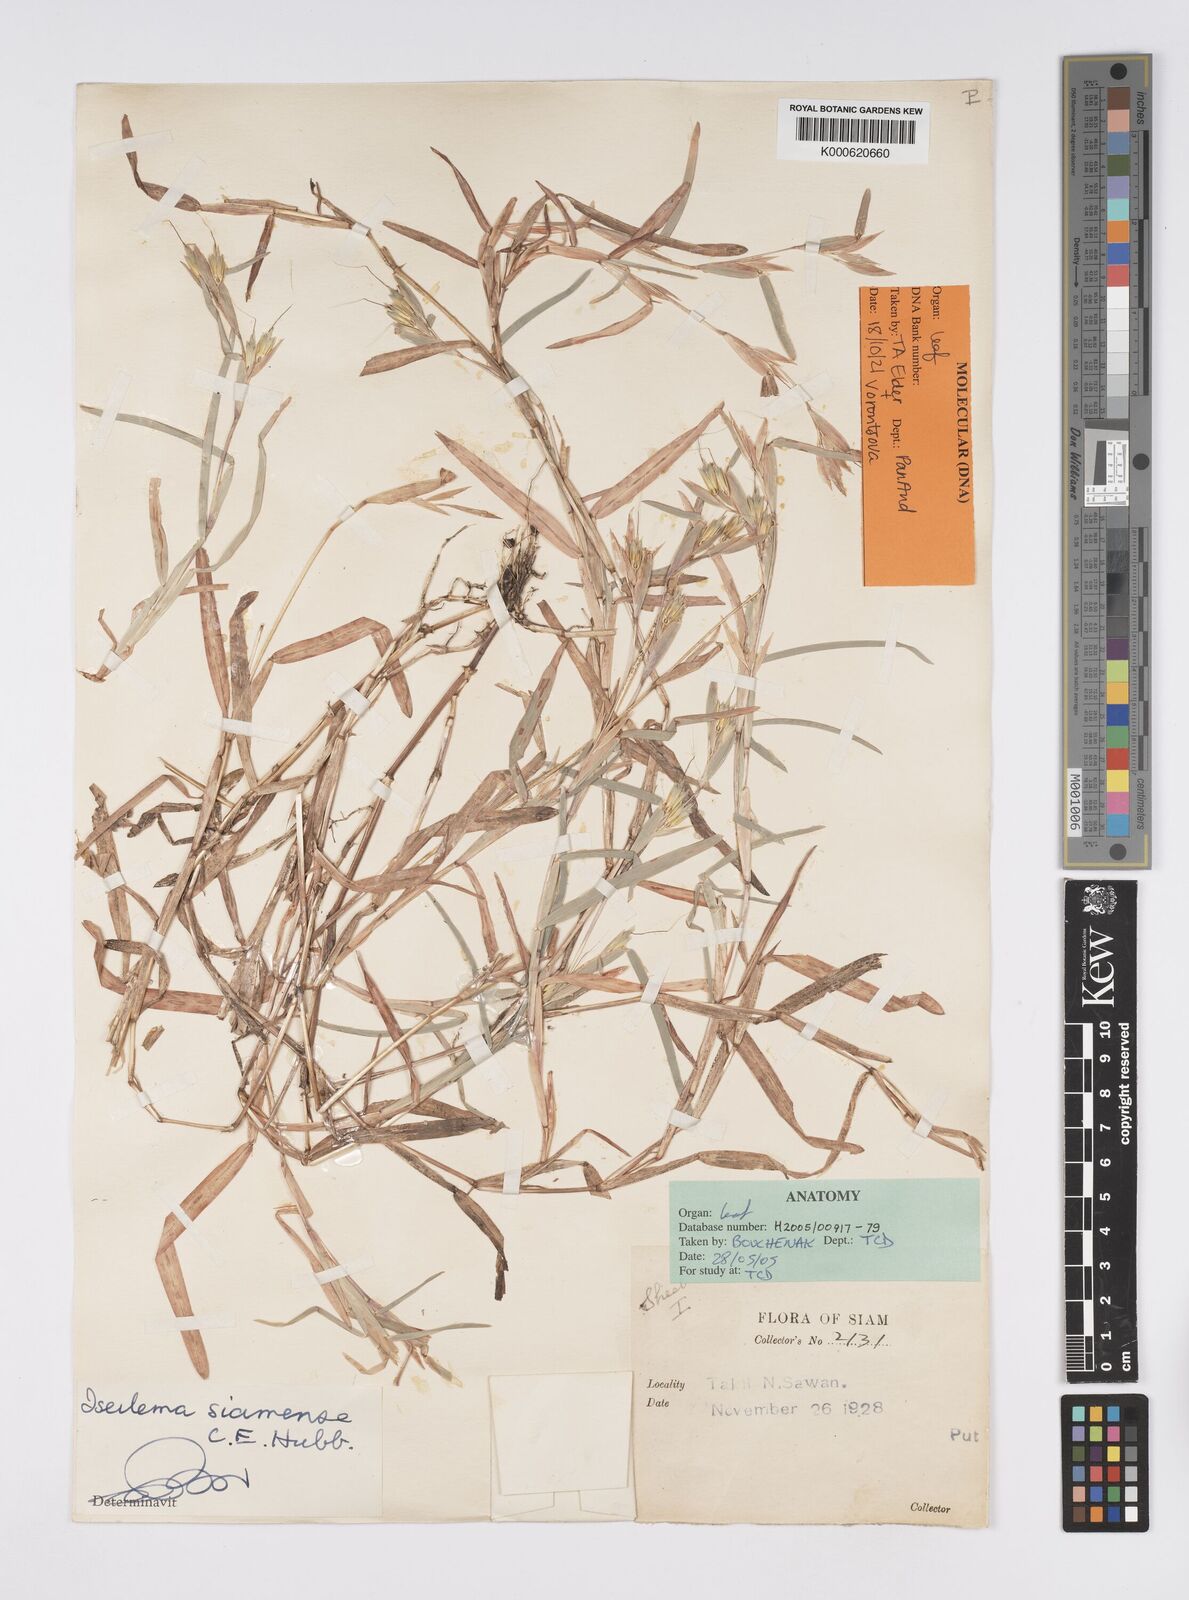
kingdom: Plantae
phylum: Tracheophyta
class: Liliopsida
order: Poales
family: Poaceae
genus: Iseilema
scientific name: Iseilema siamense
